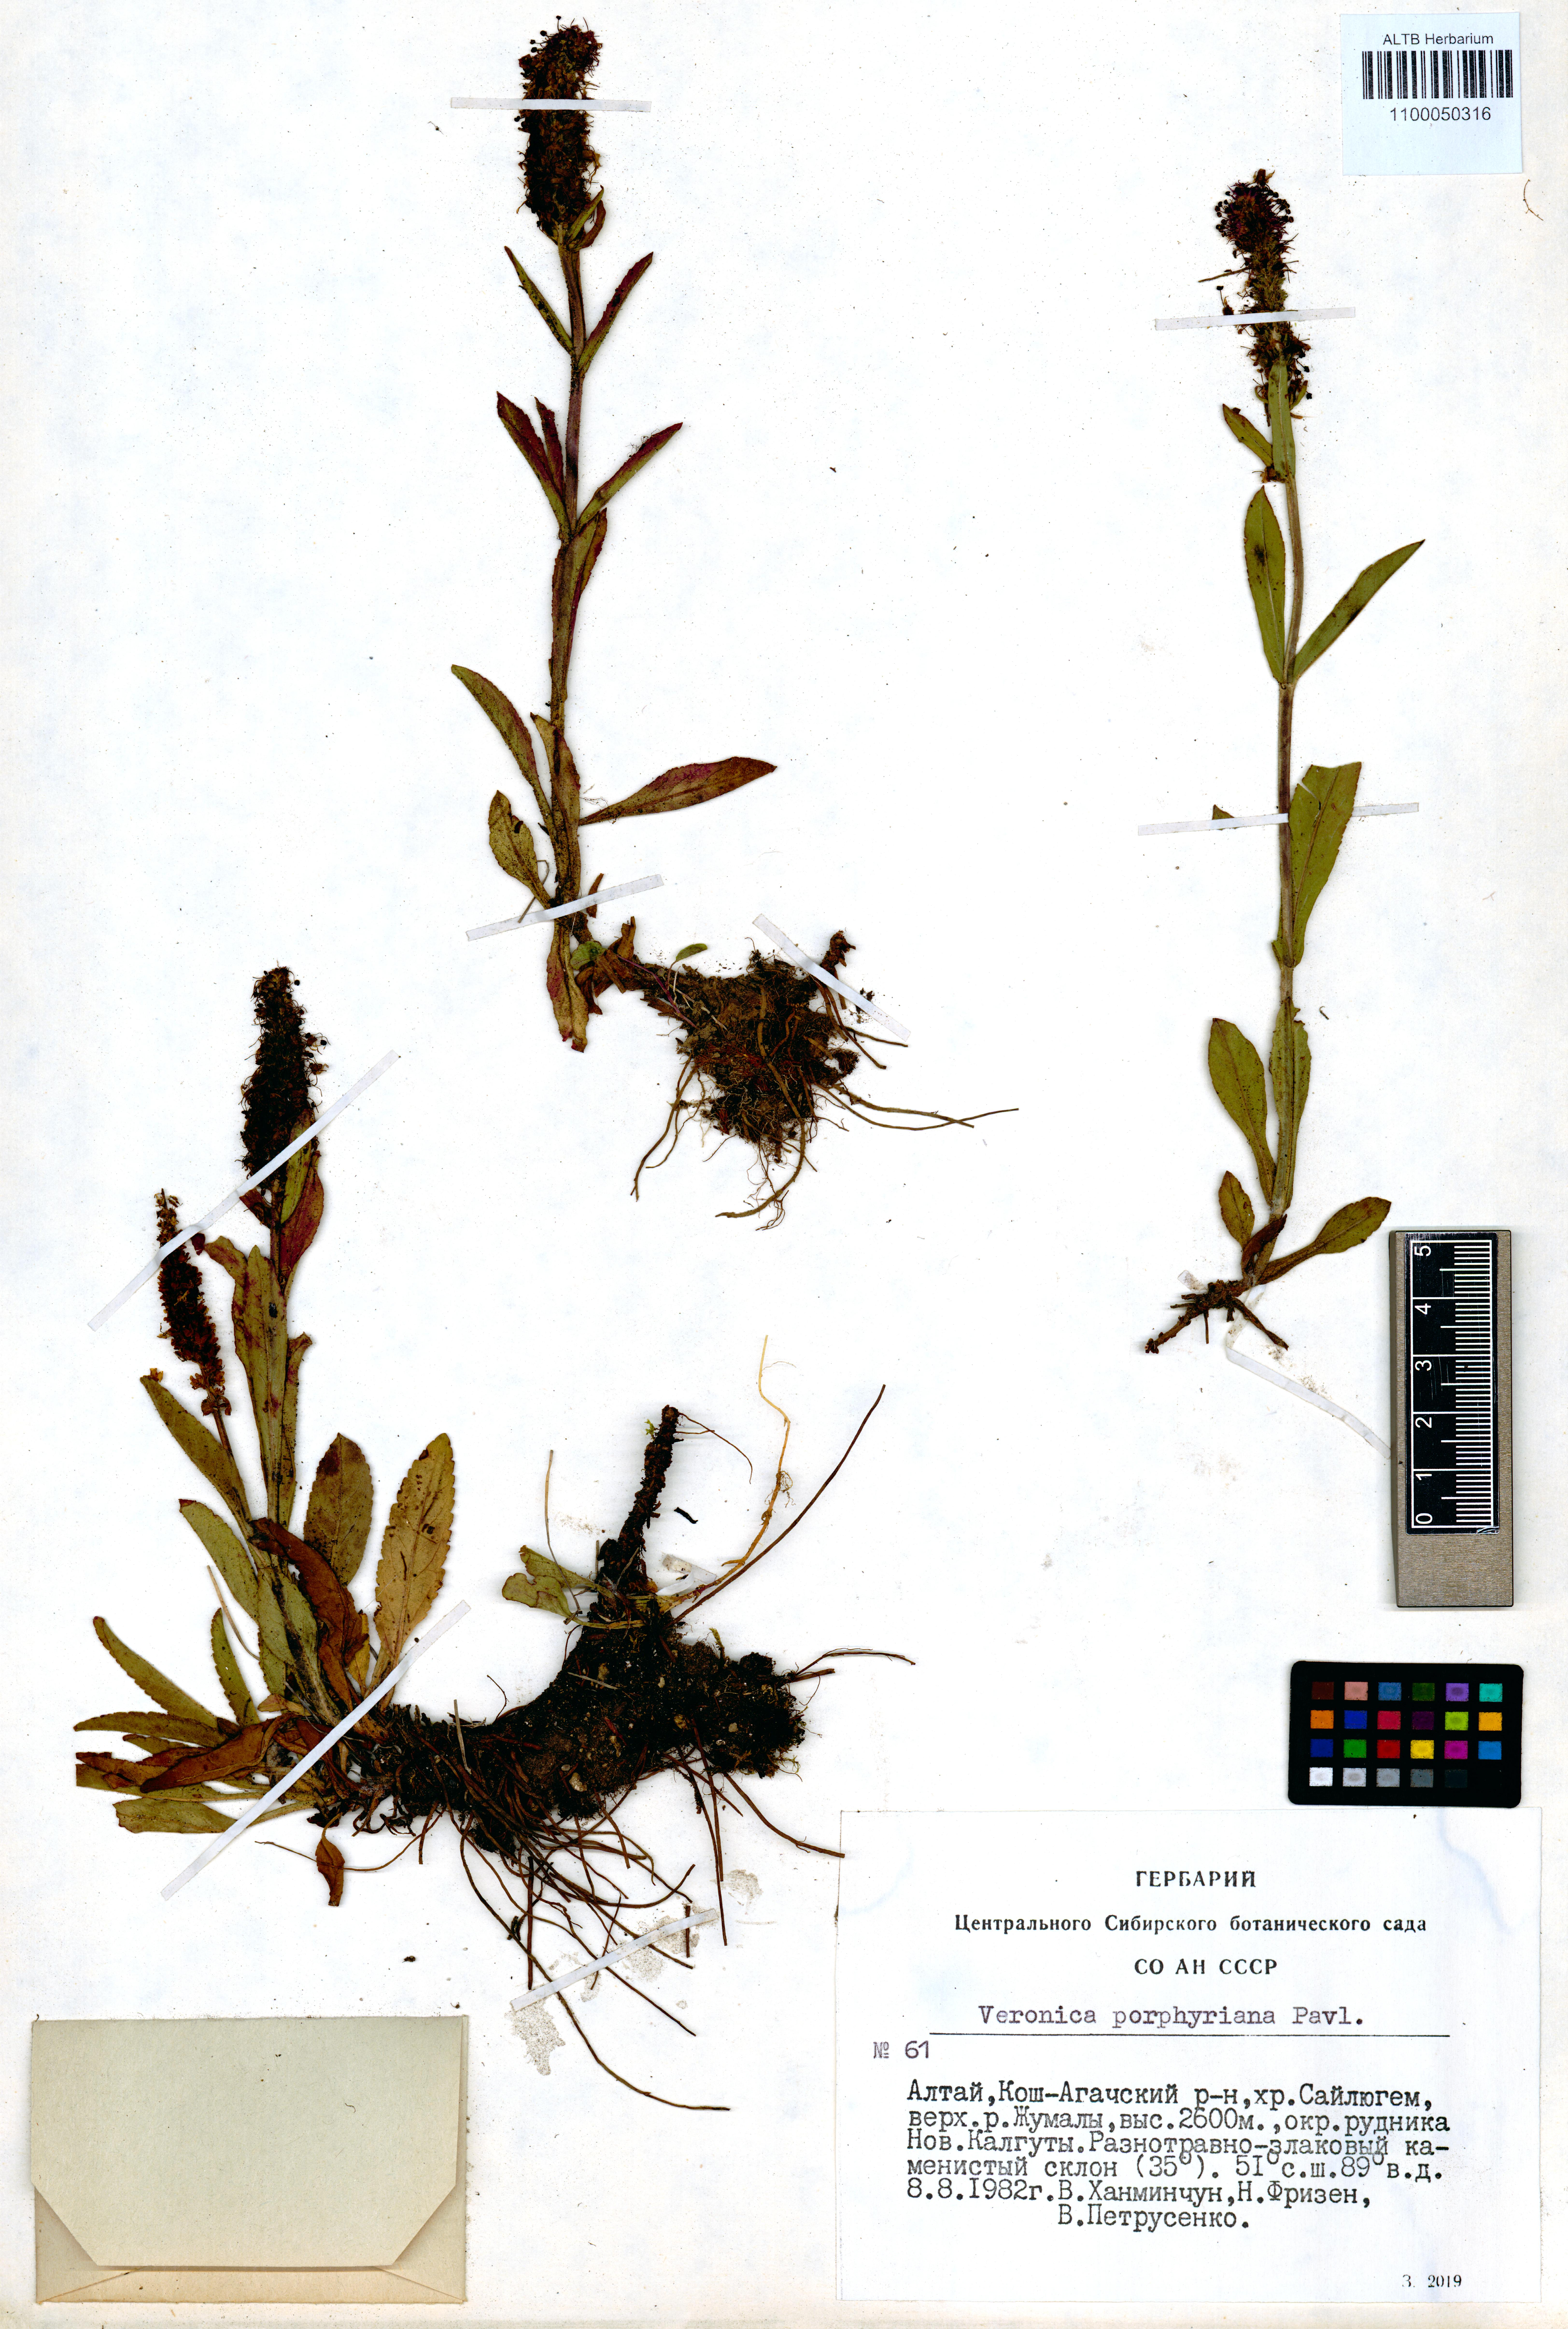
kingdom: Plantae
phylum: Tracheophyta
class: Magnoliopsida
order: Lamiales
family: Plantaginaceae
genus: Veronica
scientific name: Veronica porphyriana
